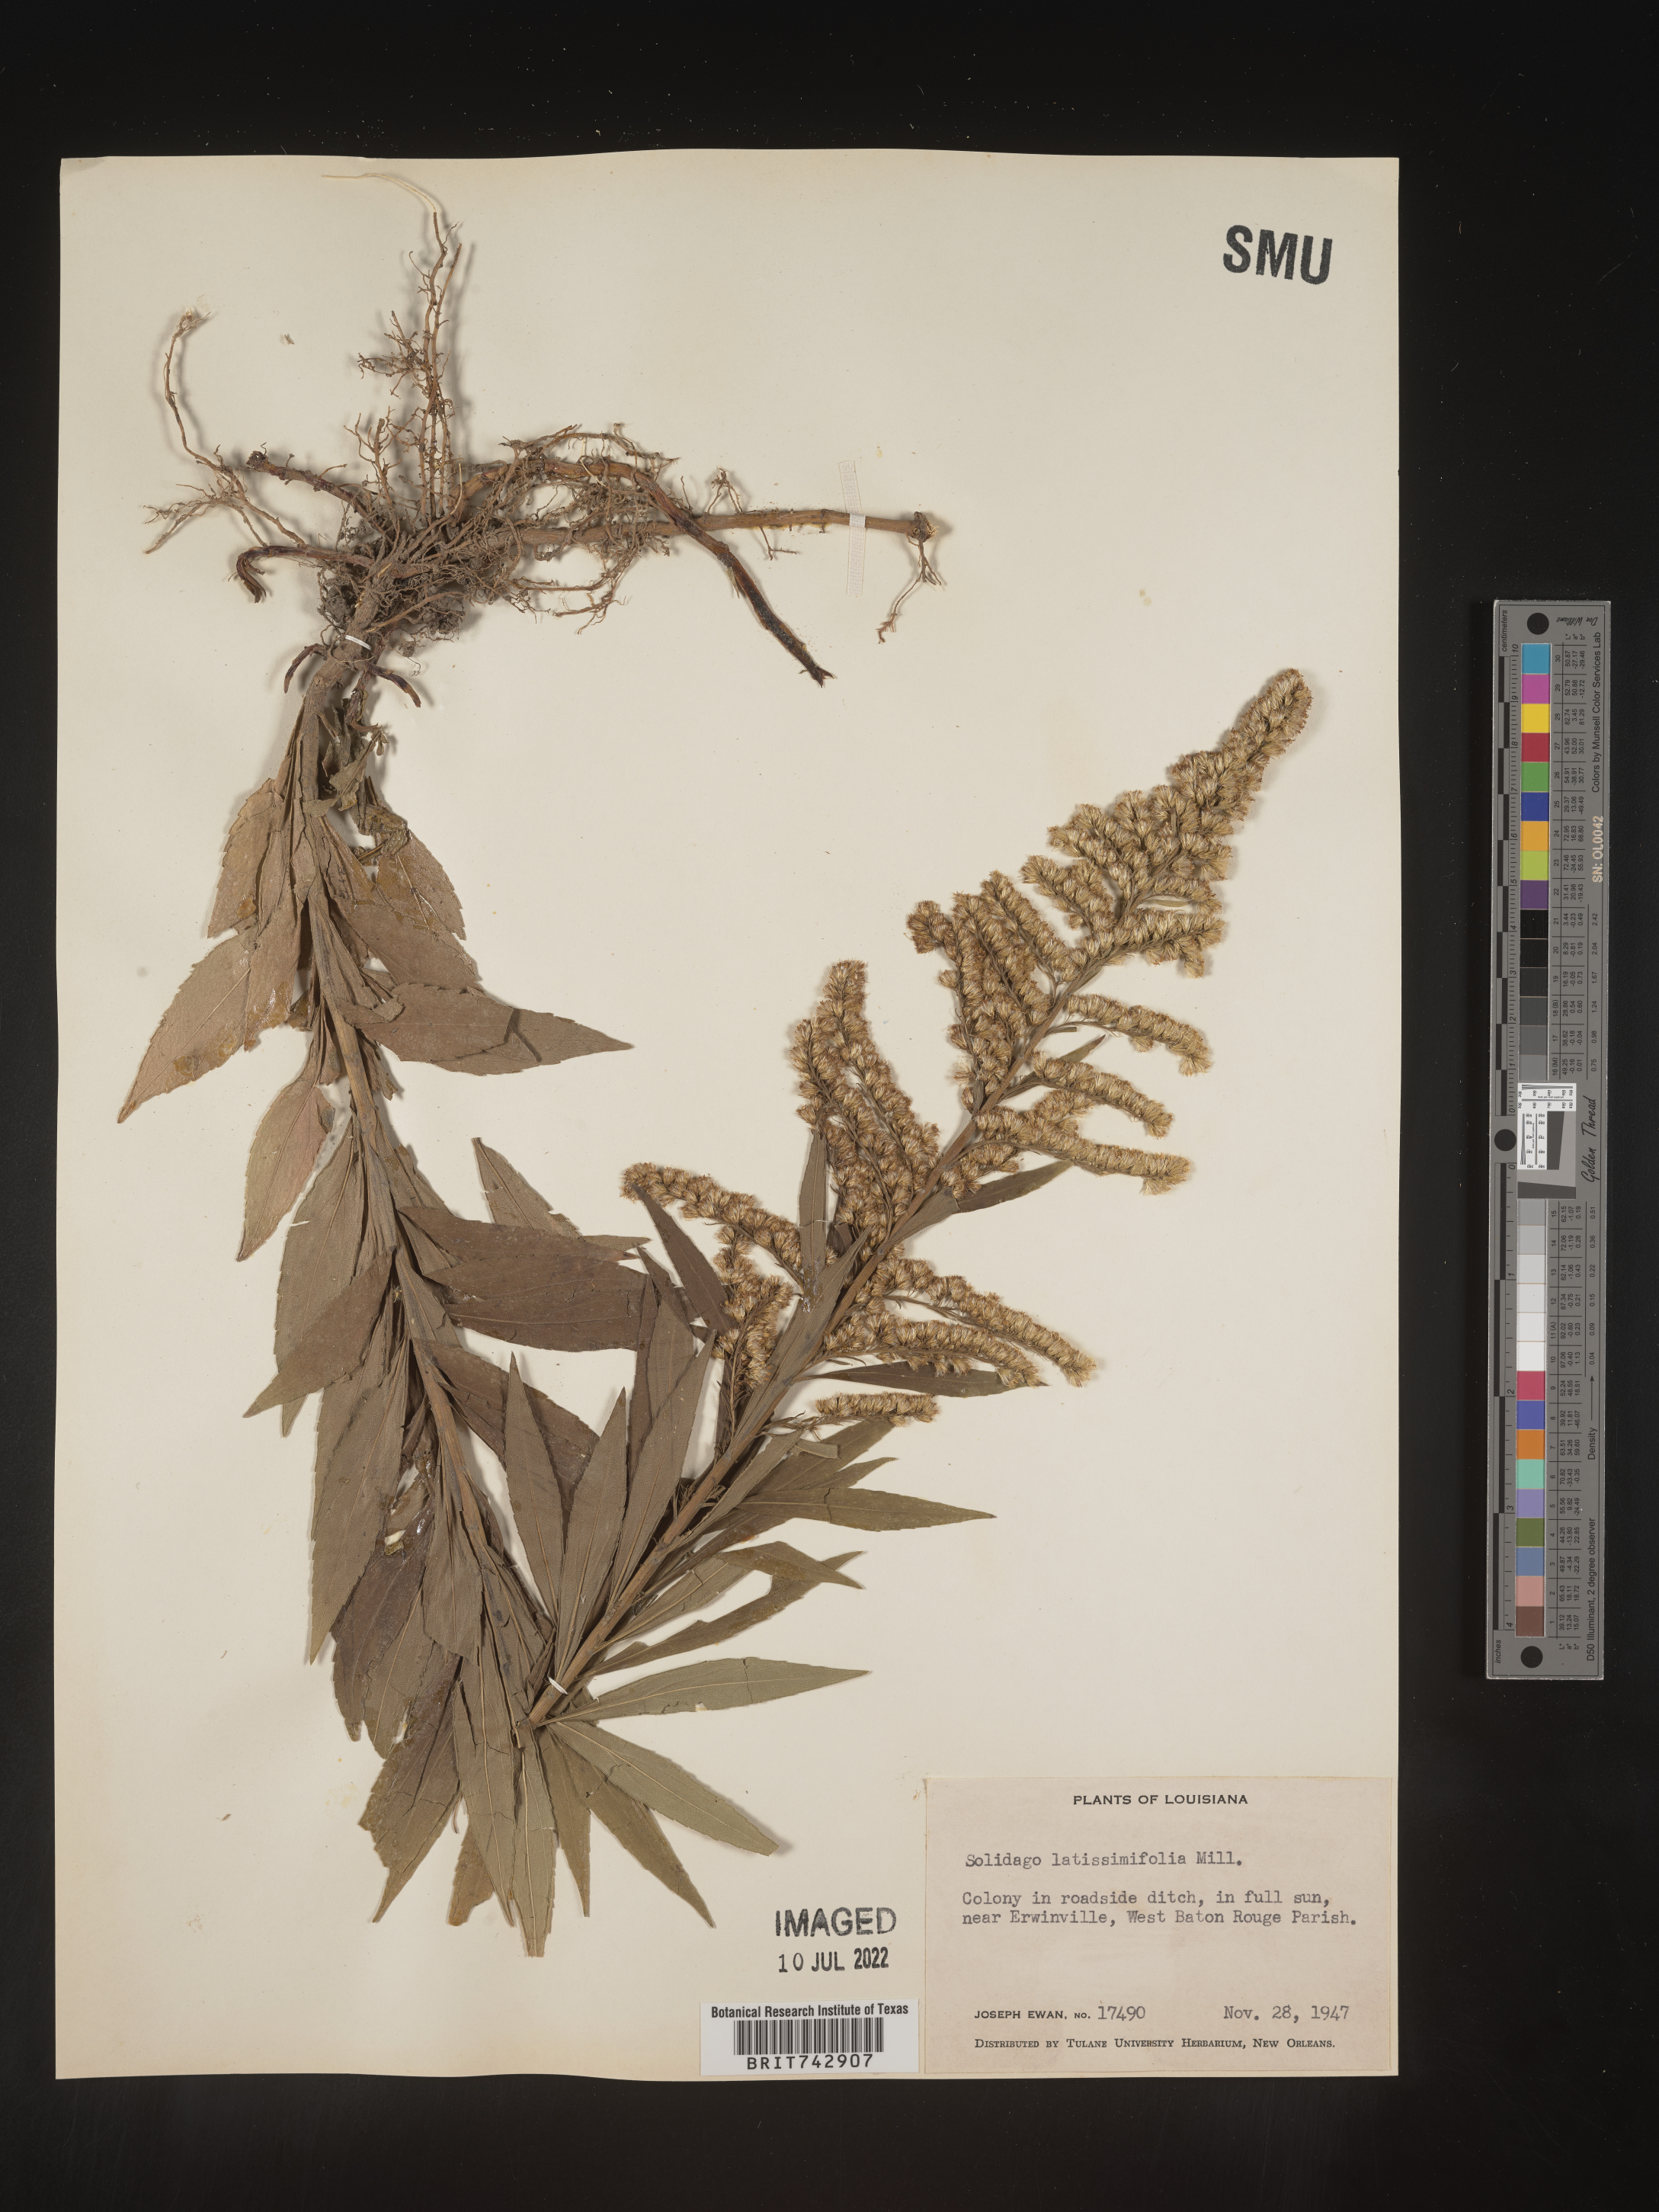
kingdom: Plantae
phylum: Tracheophyta
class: Magnoliopsida
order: Asterales
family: Asteraceae
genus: Solidago
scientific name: Solidago altissima
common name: Late goldenrod
